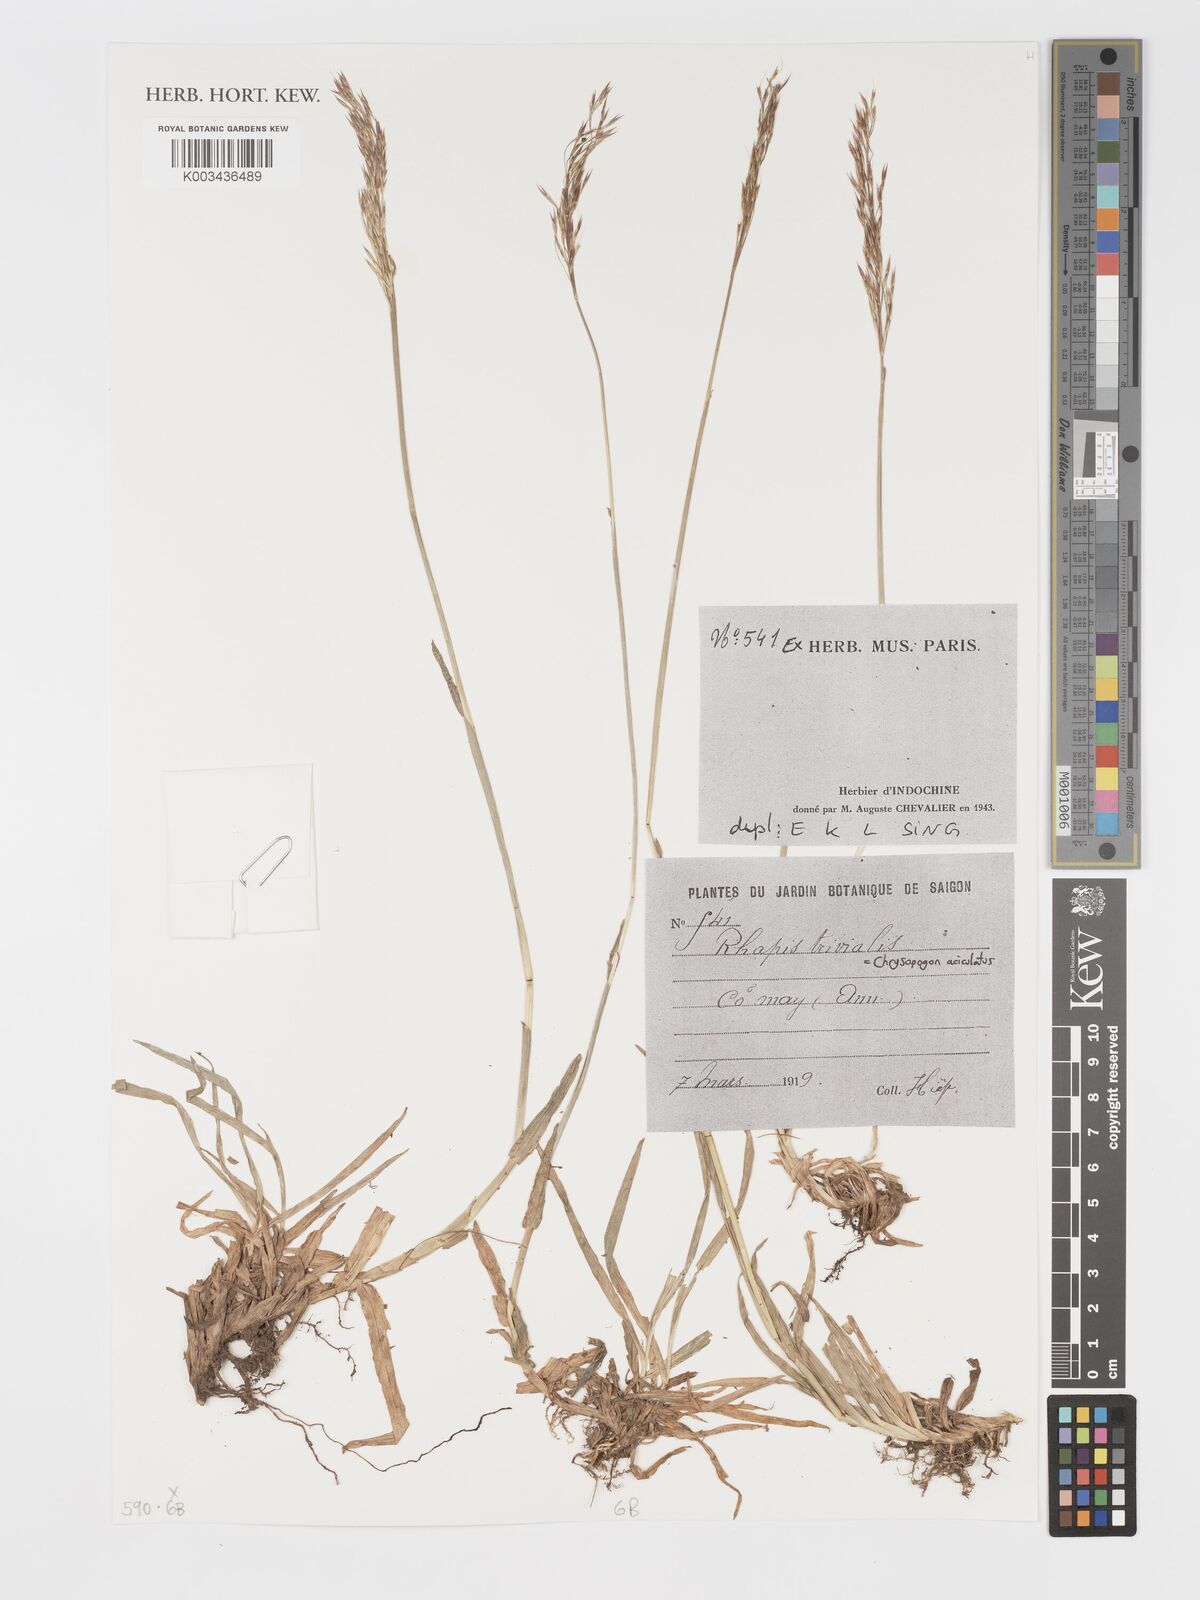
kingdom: Plantae
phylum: Tracheophyta
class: Liliopsida
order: Poales
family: Poaceae
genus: Chrysopogon
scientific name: Chrysopogon aciculatus
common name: Pilipiliula
